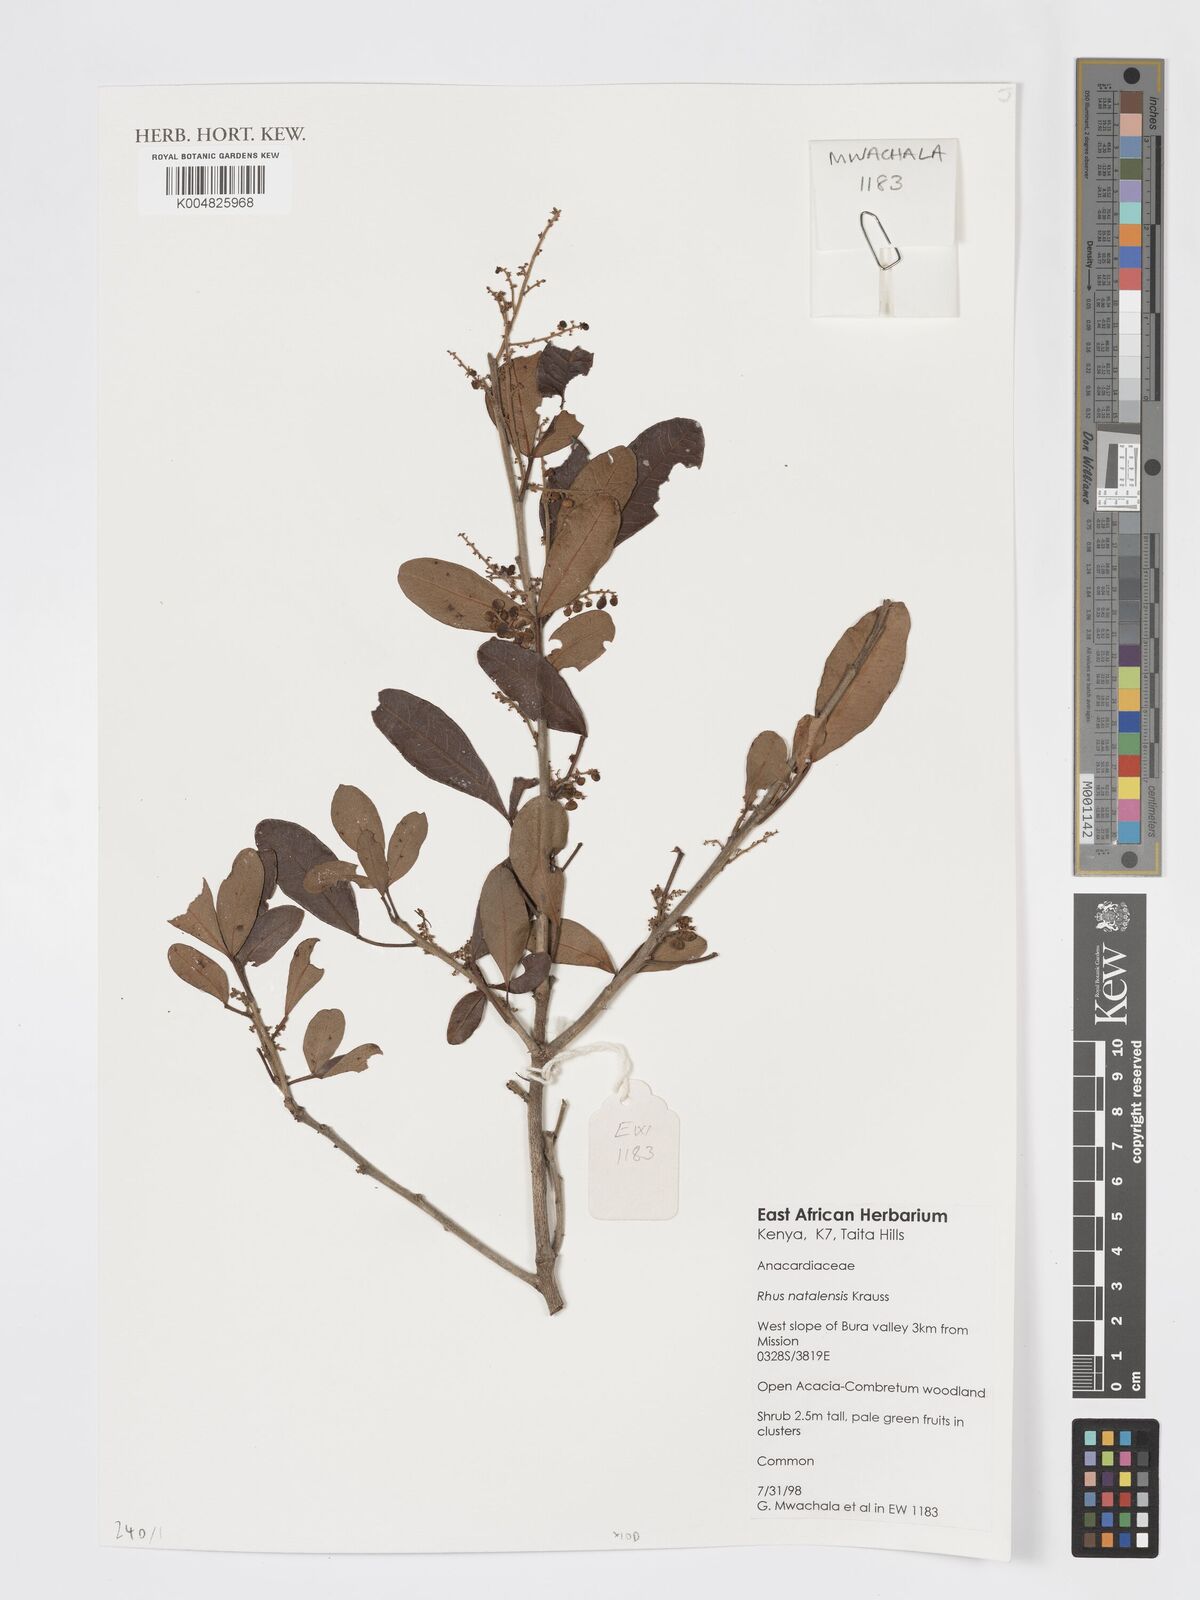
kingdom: Plantae
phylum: Tracheophyta
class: Magnoliopsida
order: Sapindales
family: Anacardiaceae
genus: Searsia
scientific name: Searsia natalensis
